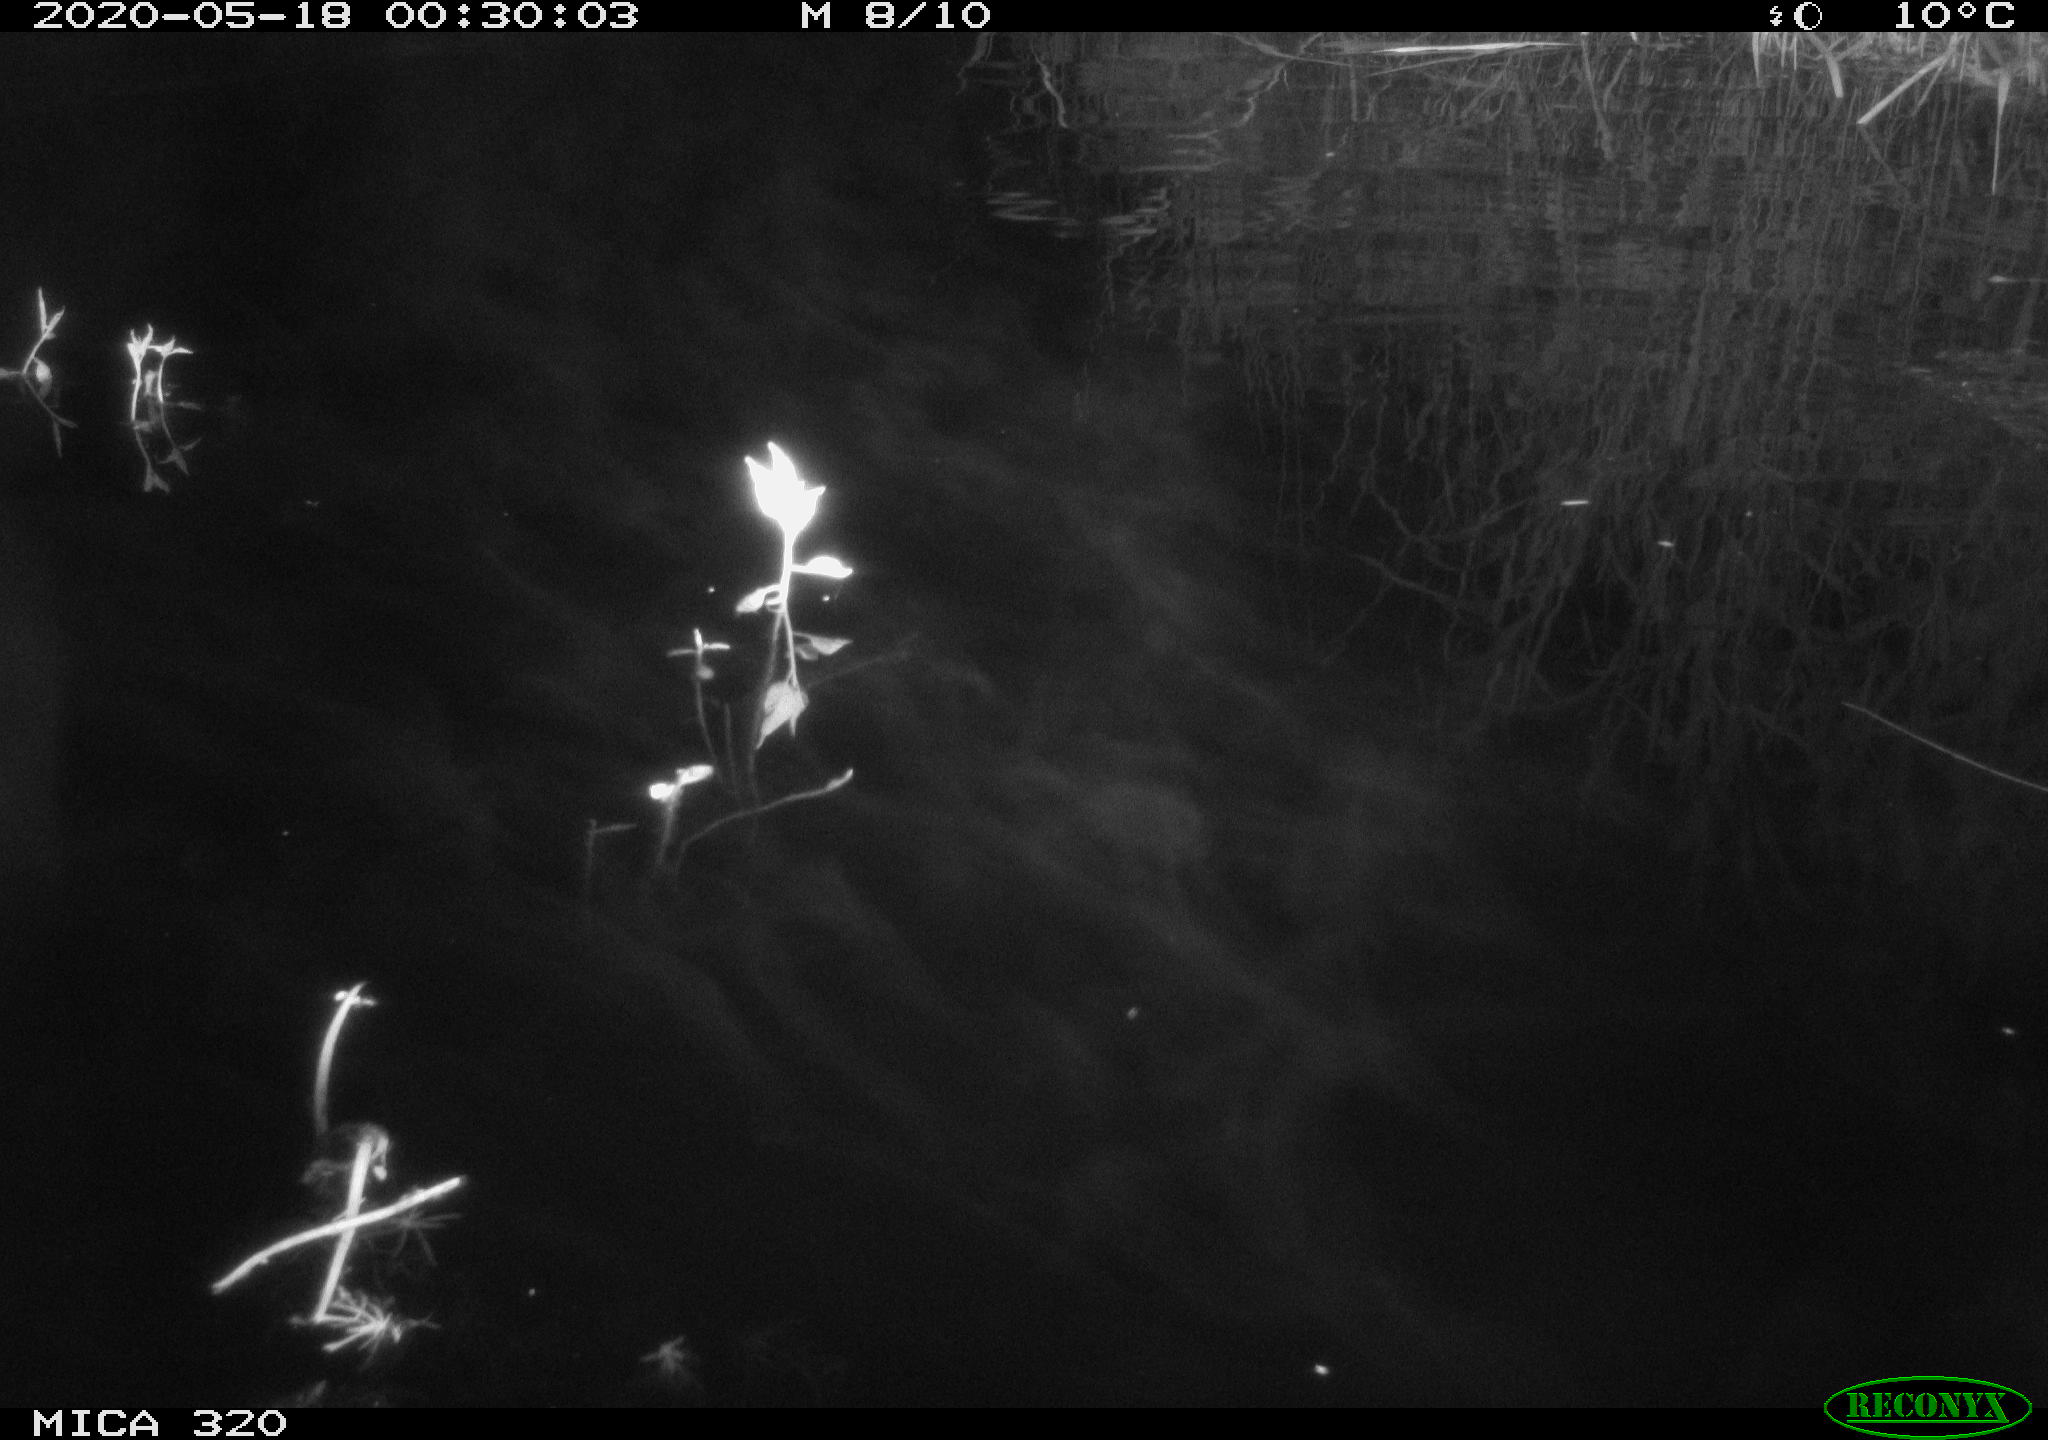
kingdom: Animalia
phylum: Chordata
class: Aves
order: Anseriformes
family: Anatidae
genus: Anas
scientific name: Anas platyrhynchos
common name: Mallard
